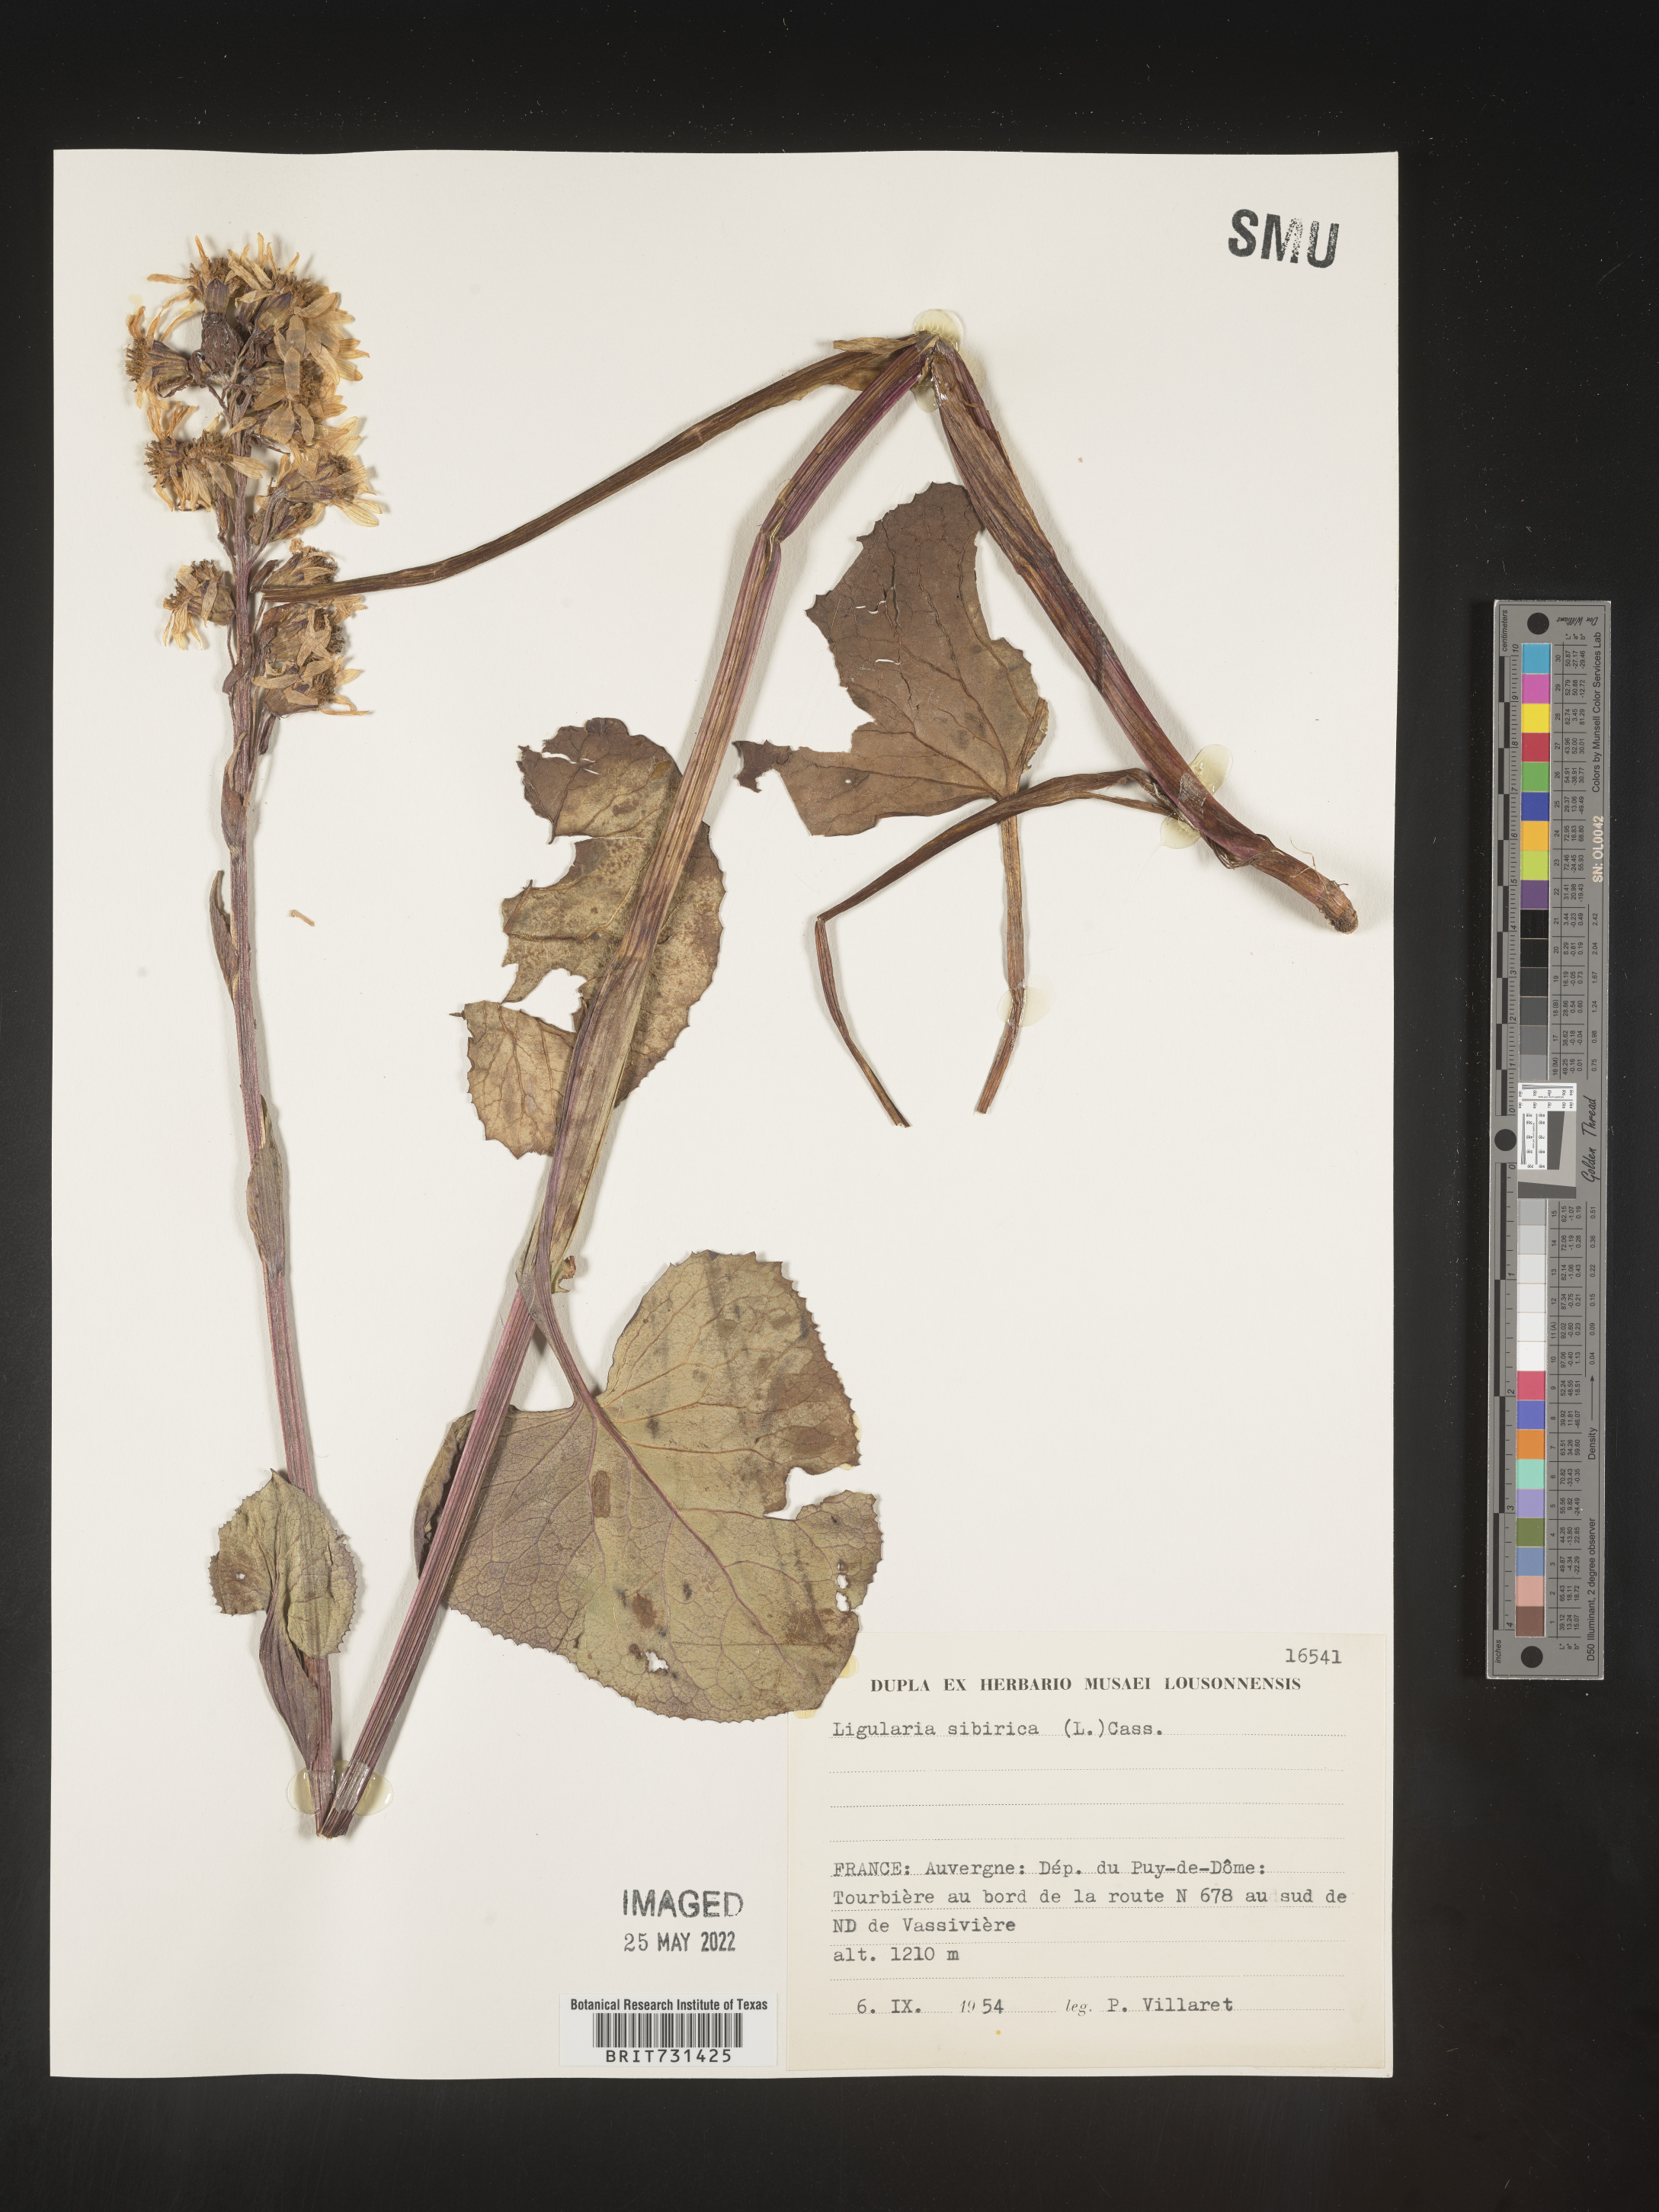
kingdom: Plantae
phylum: Tracheophyta
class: Magnoliopsida
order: Asterales
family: Asteraceae
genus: Ligularia
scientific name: Ligularia
